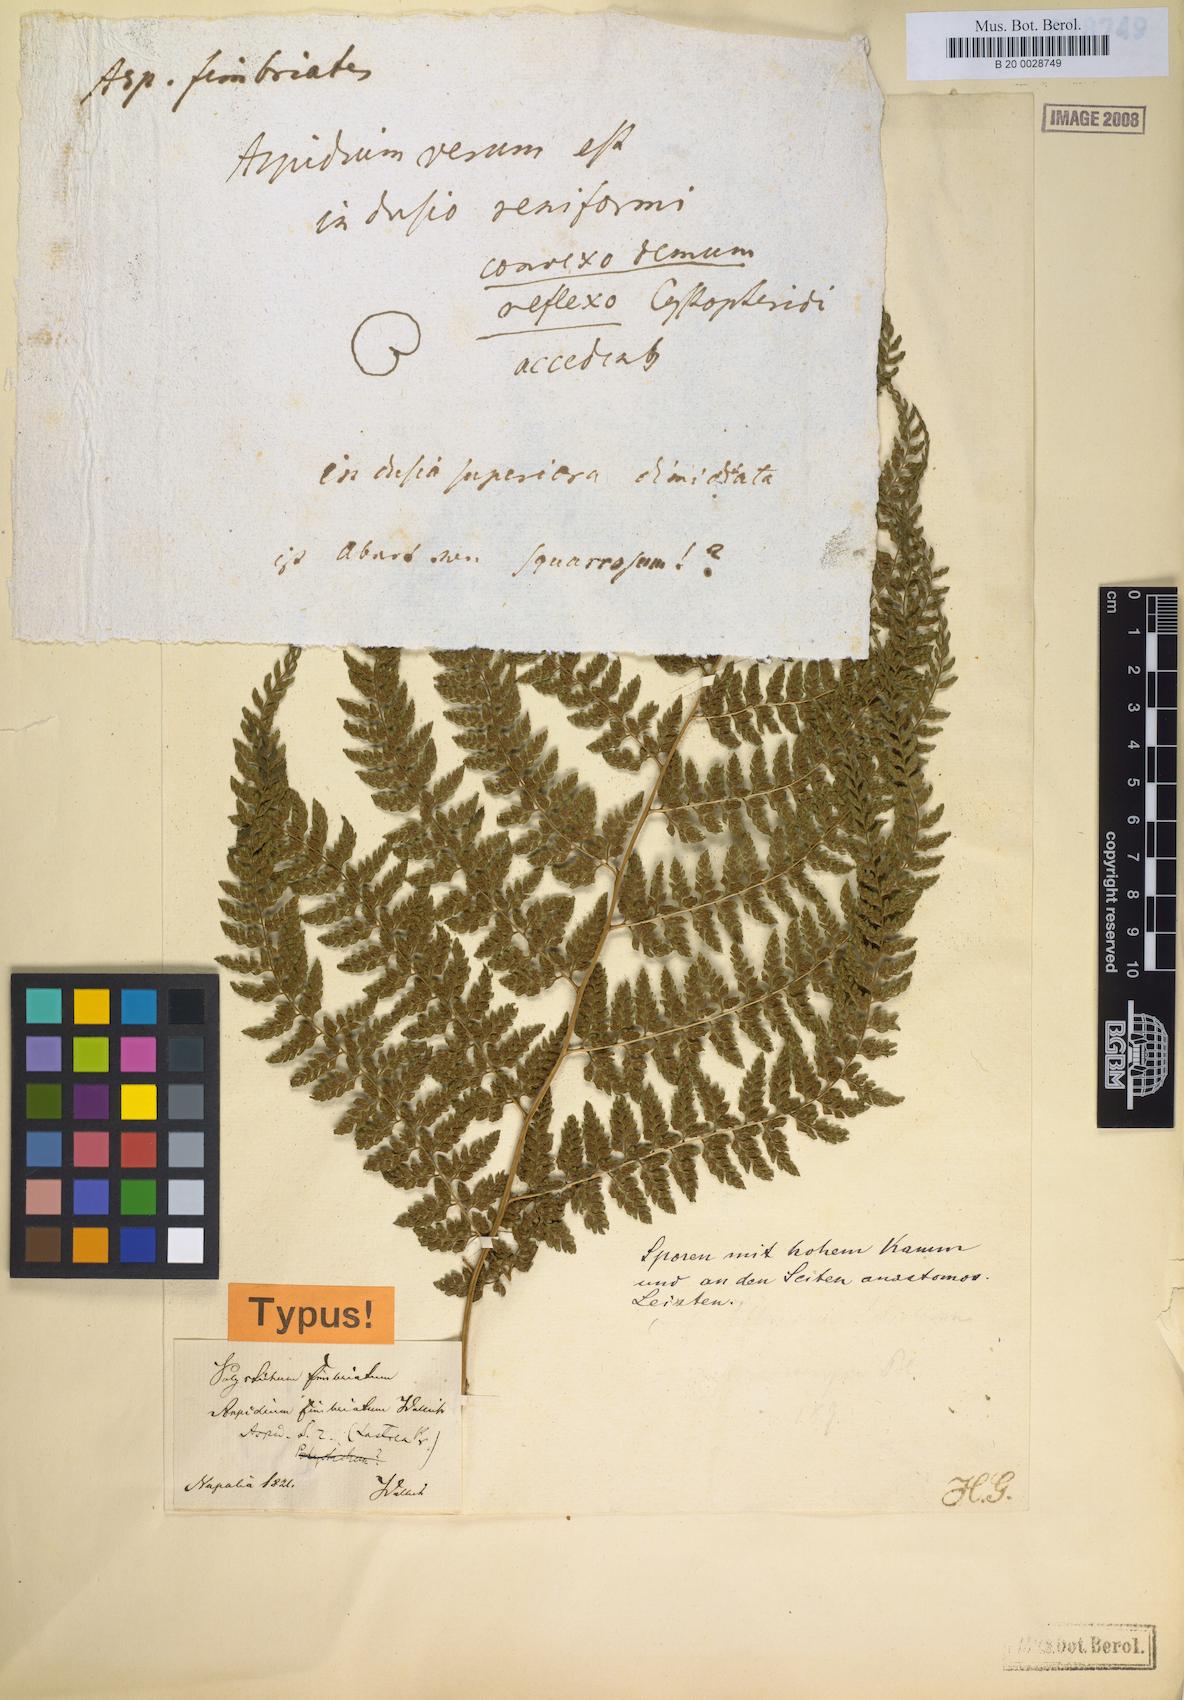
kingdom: Plantae
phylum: Tracheophyta
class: Polypodiopsida
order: Polypodiales
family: Athyriaceae
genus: Athyrium
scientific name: Athyrium fimbriatum
